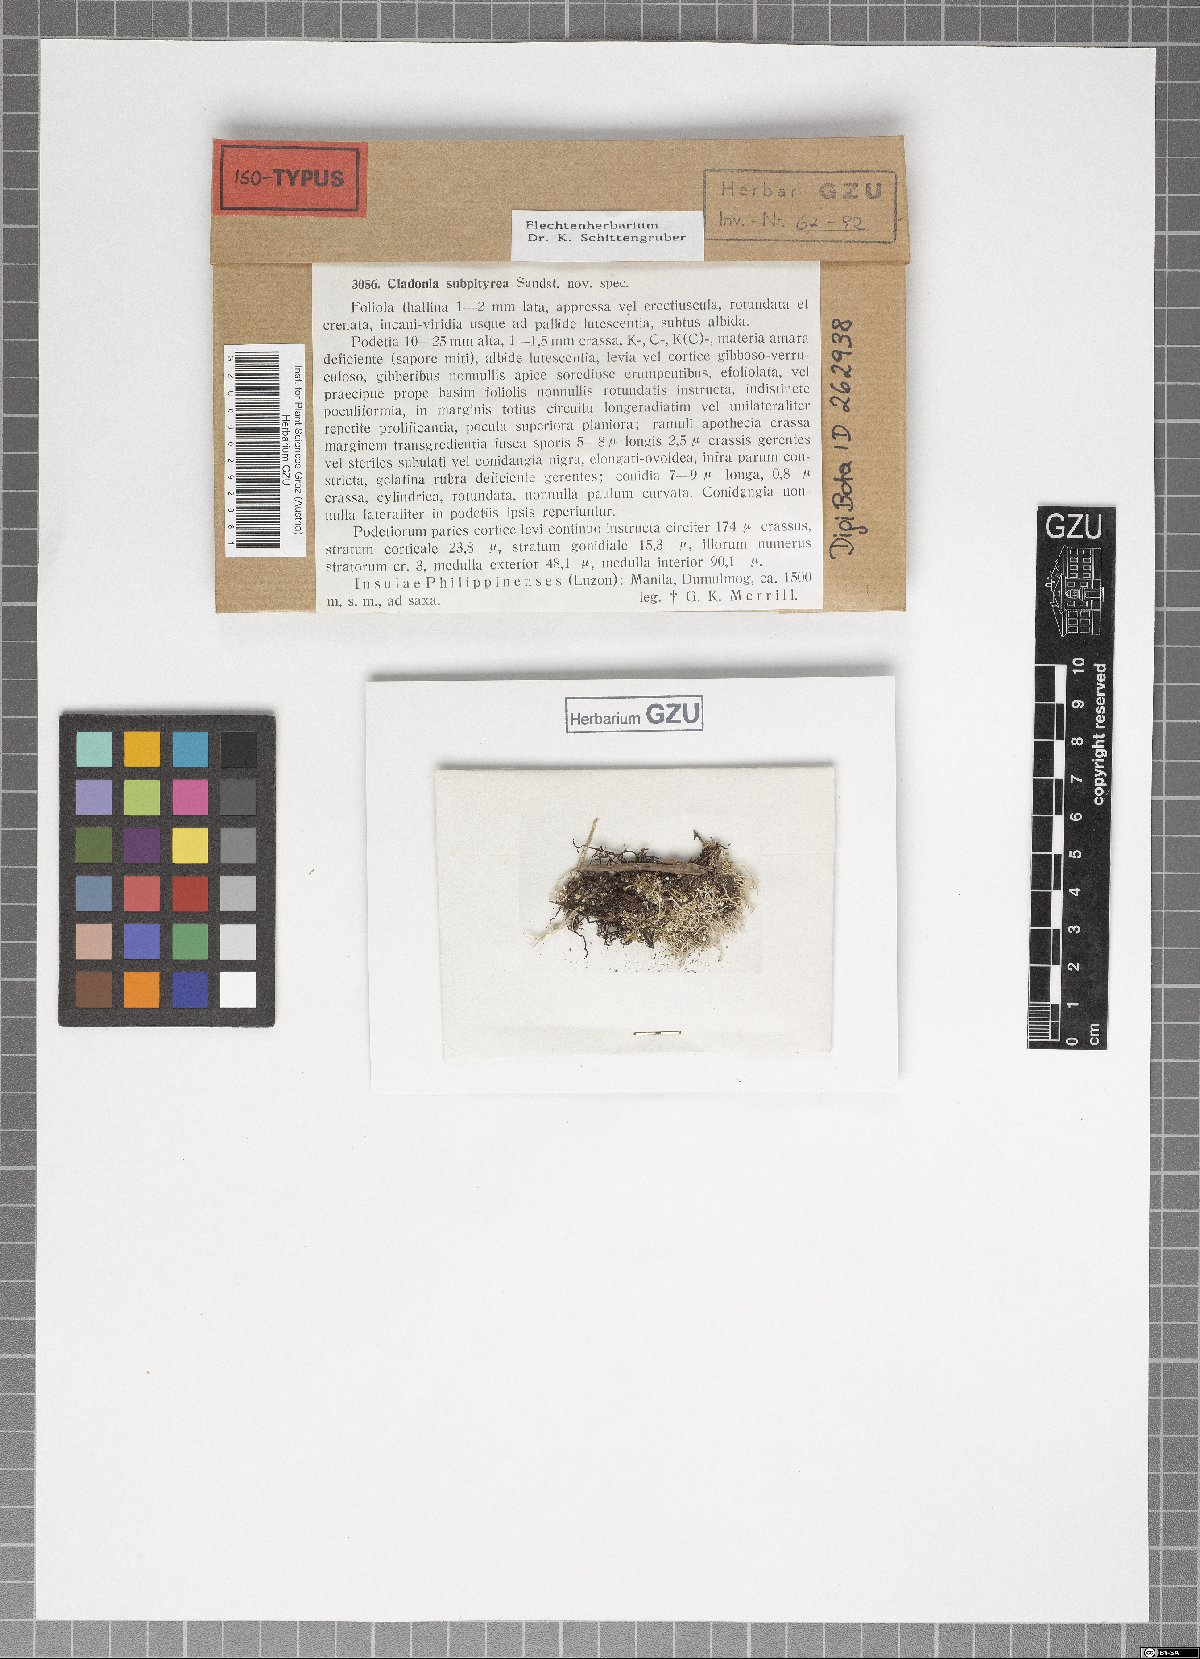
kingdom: Fungi
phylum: Ascomycota
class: Lecanoromycetes
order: Lecanorales
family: Cladoniaceae
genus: Cladonia
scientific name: Cladonia subpityrea
